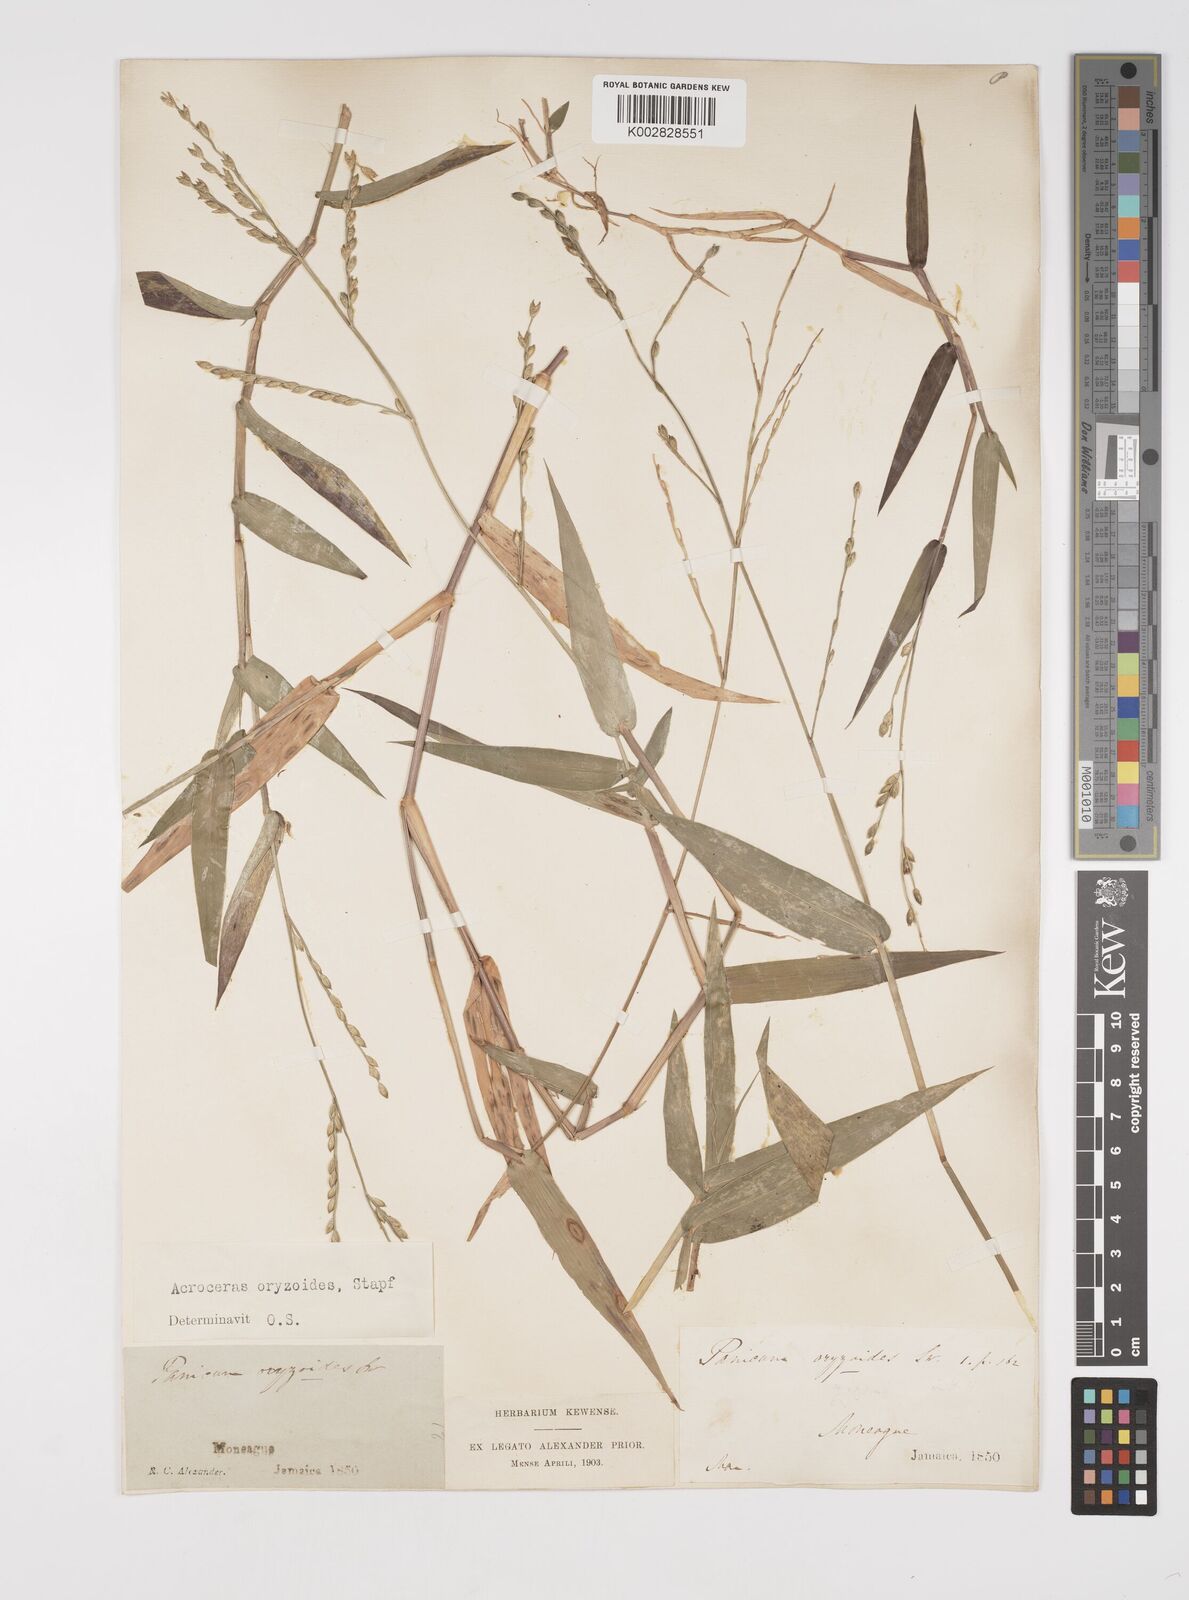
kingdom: Plantae
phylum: Tracheophyta
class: Liliopsida
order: Poales
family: Poaceae
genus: Acroceras
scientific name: Acroceras zizanioides
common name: Oat grass
